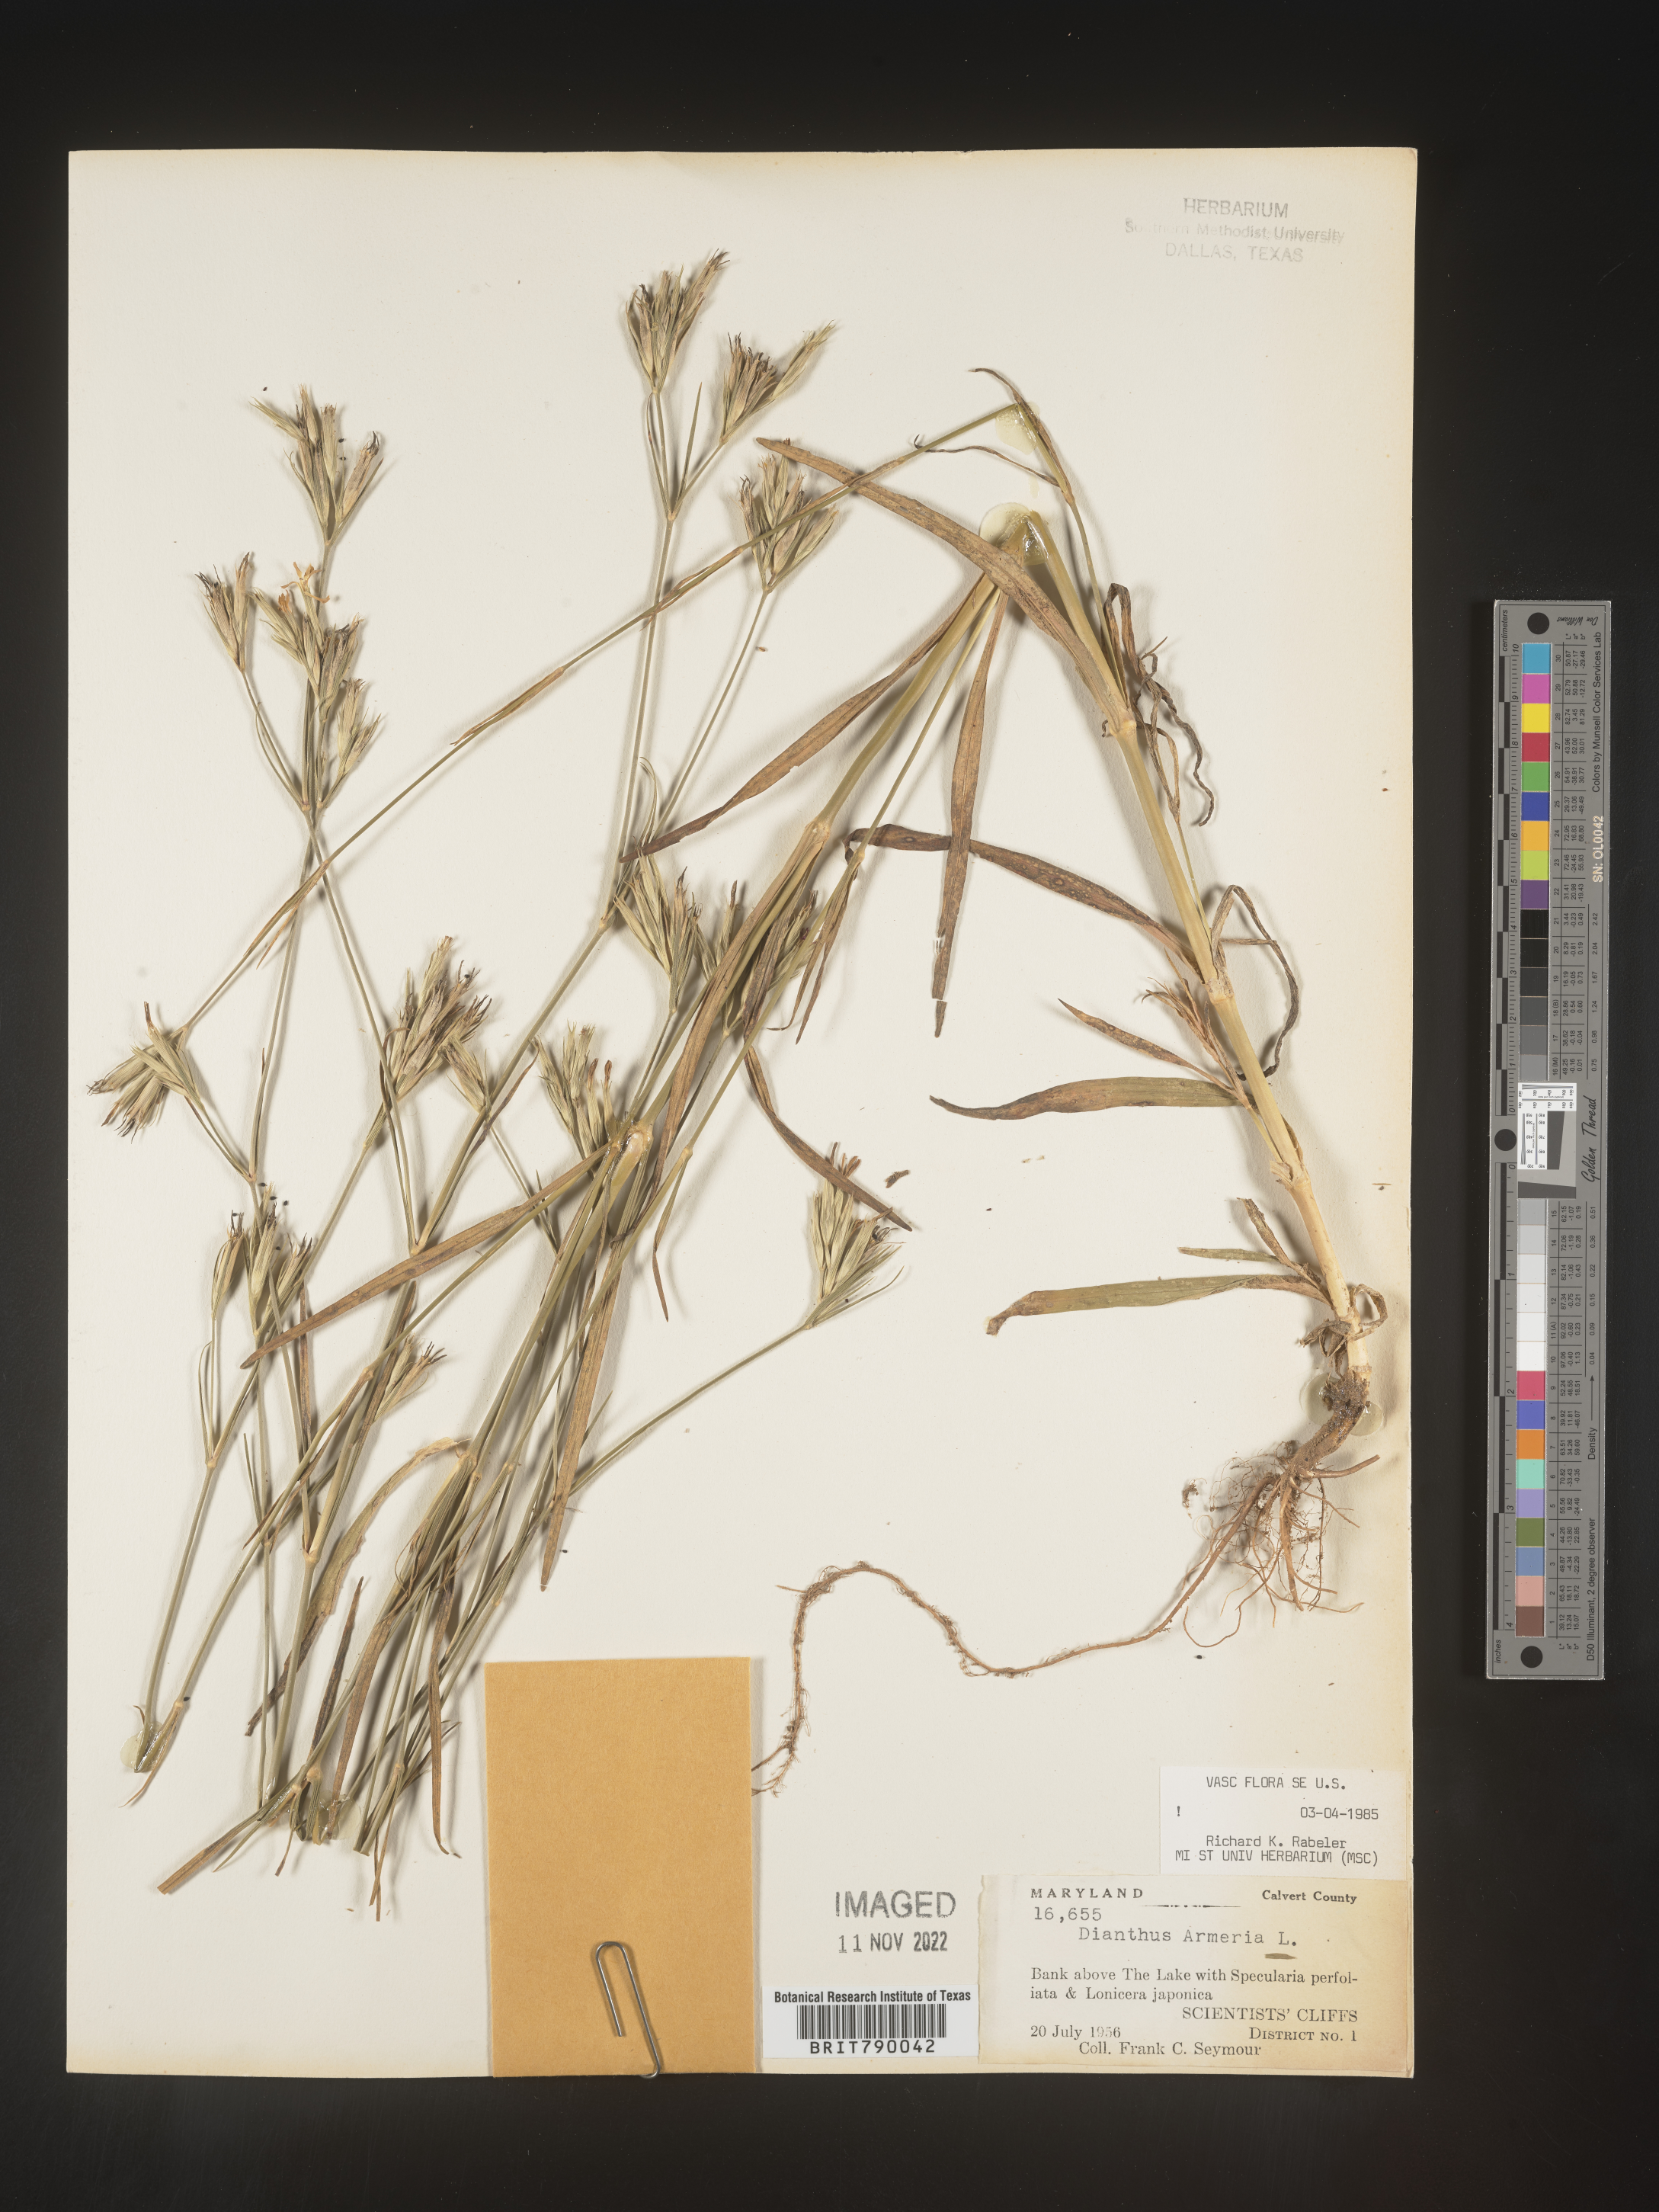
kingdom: Plantae
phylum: Tracheophyta
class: Magnoliopsida
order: Caryophyllales
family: Caryophyllaceae
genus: Dianthus
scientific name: Dianthus armeria
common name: Deptford pink
